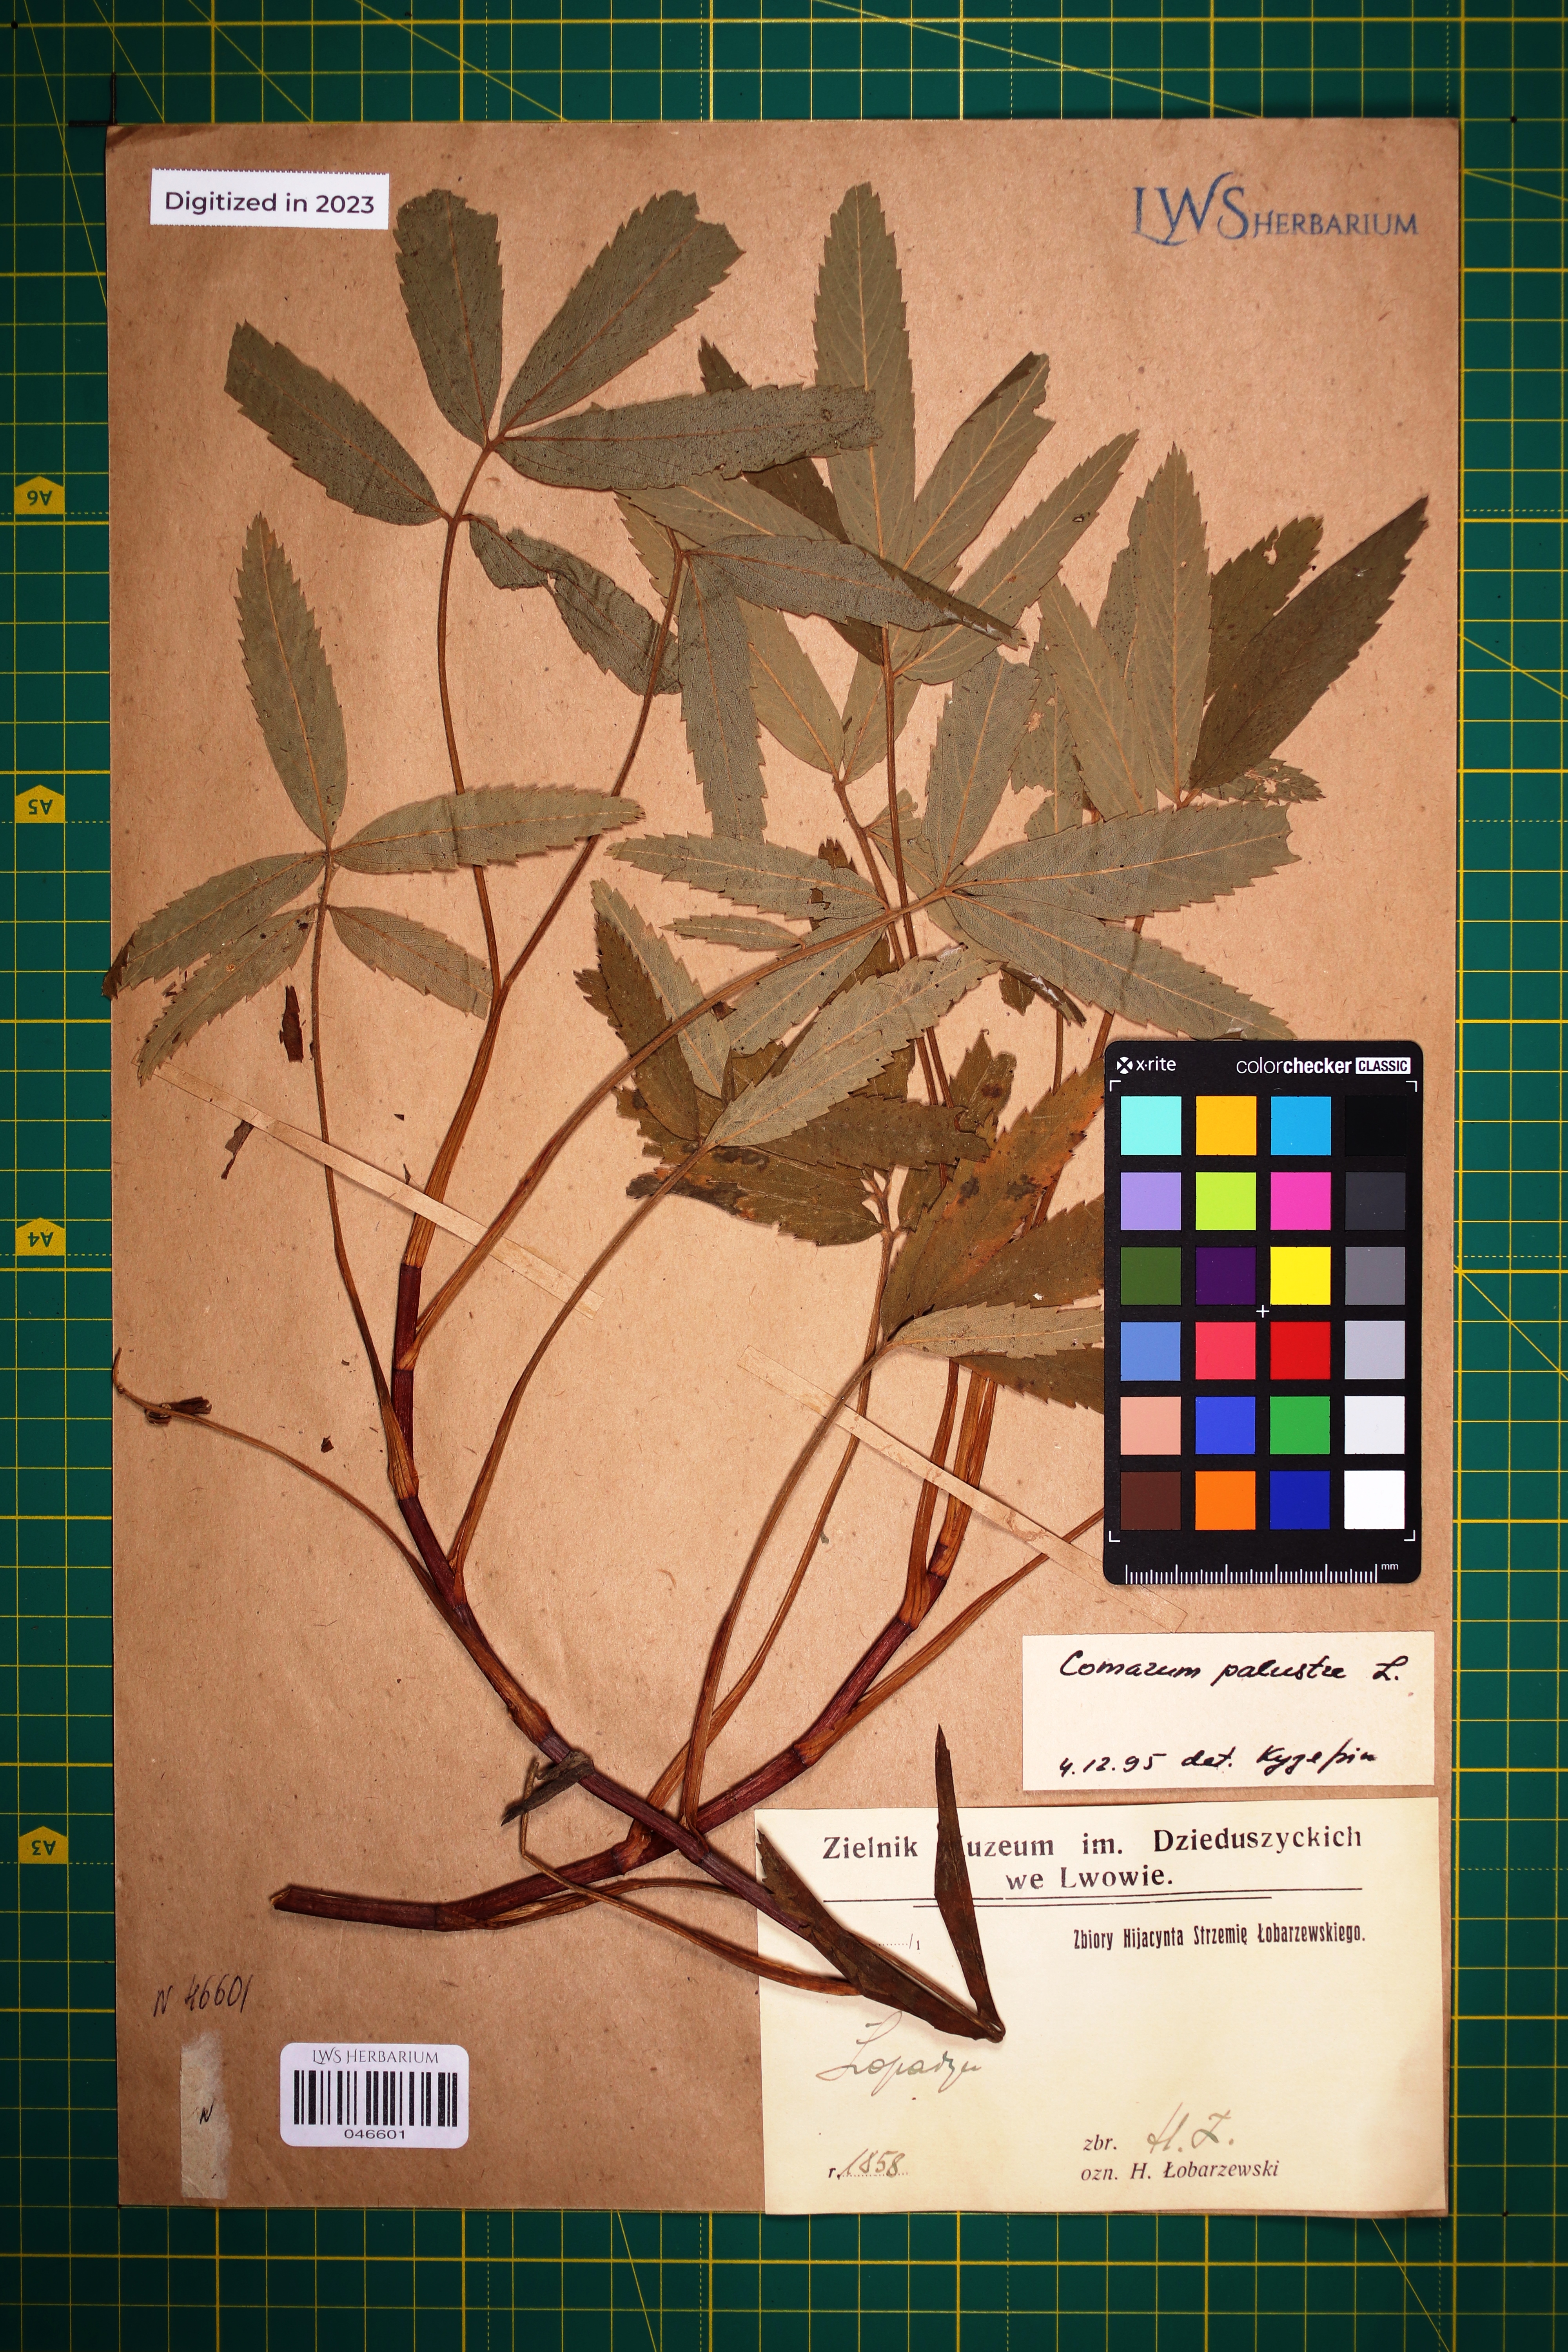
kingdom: Plantae
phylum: Tracheophyta
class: Magnoliopsida
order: Rosales
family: Rosaceae
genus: Comarum
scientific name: Comarum palustre
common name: Marsh cinquefoil
